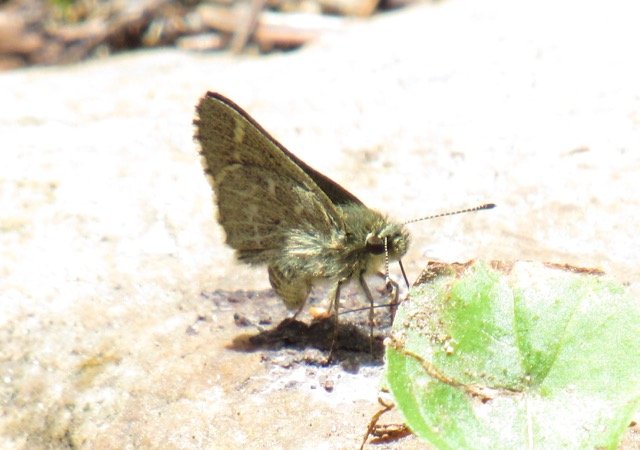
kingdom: Animalia
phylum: Arthropoda
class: Insecta
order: Lepidoptera
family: Hesperiidae
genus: Mastor
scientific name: Mastor hegon
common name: Pepper and Salt Skipper
